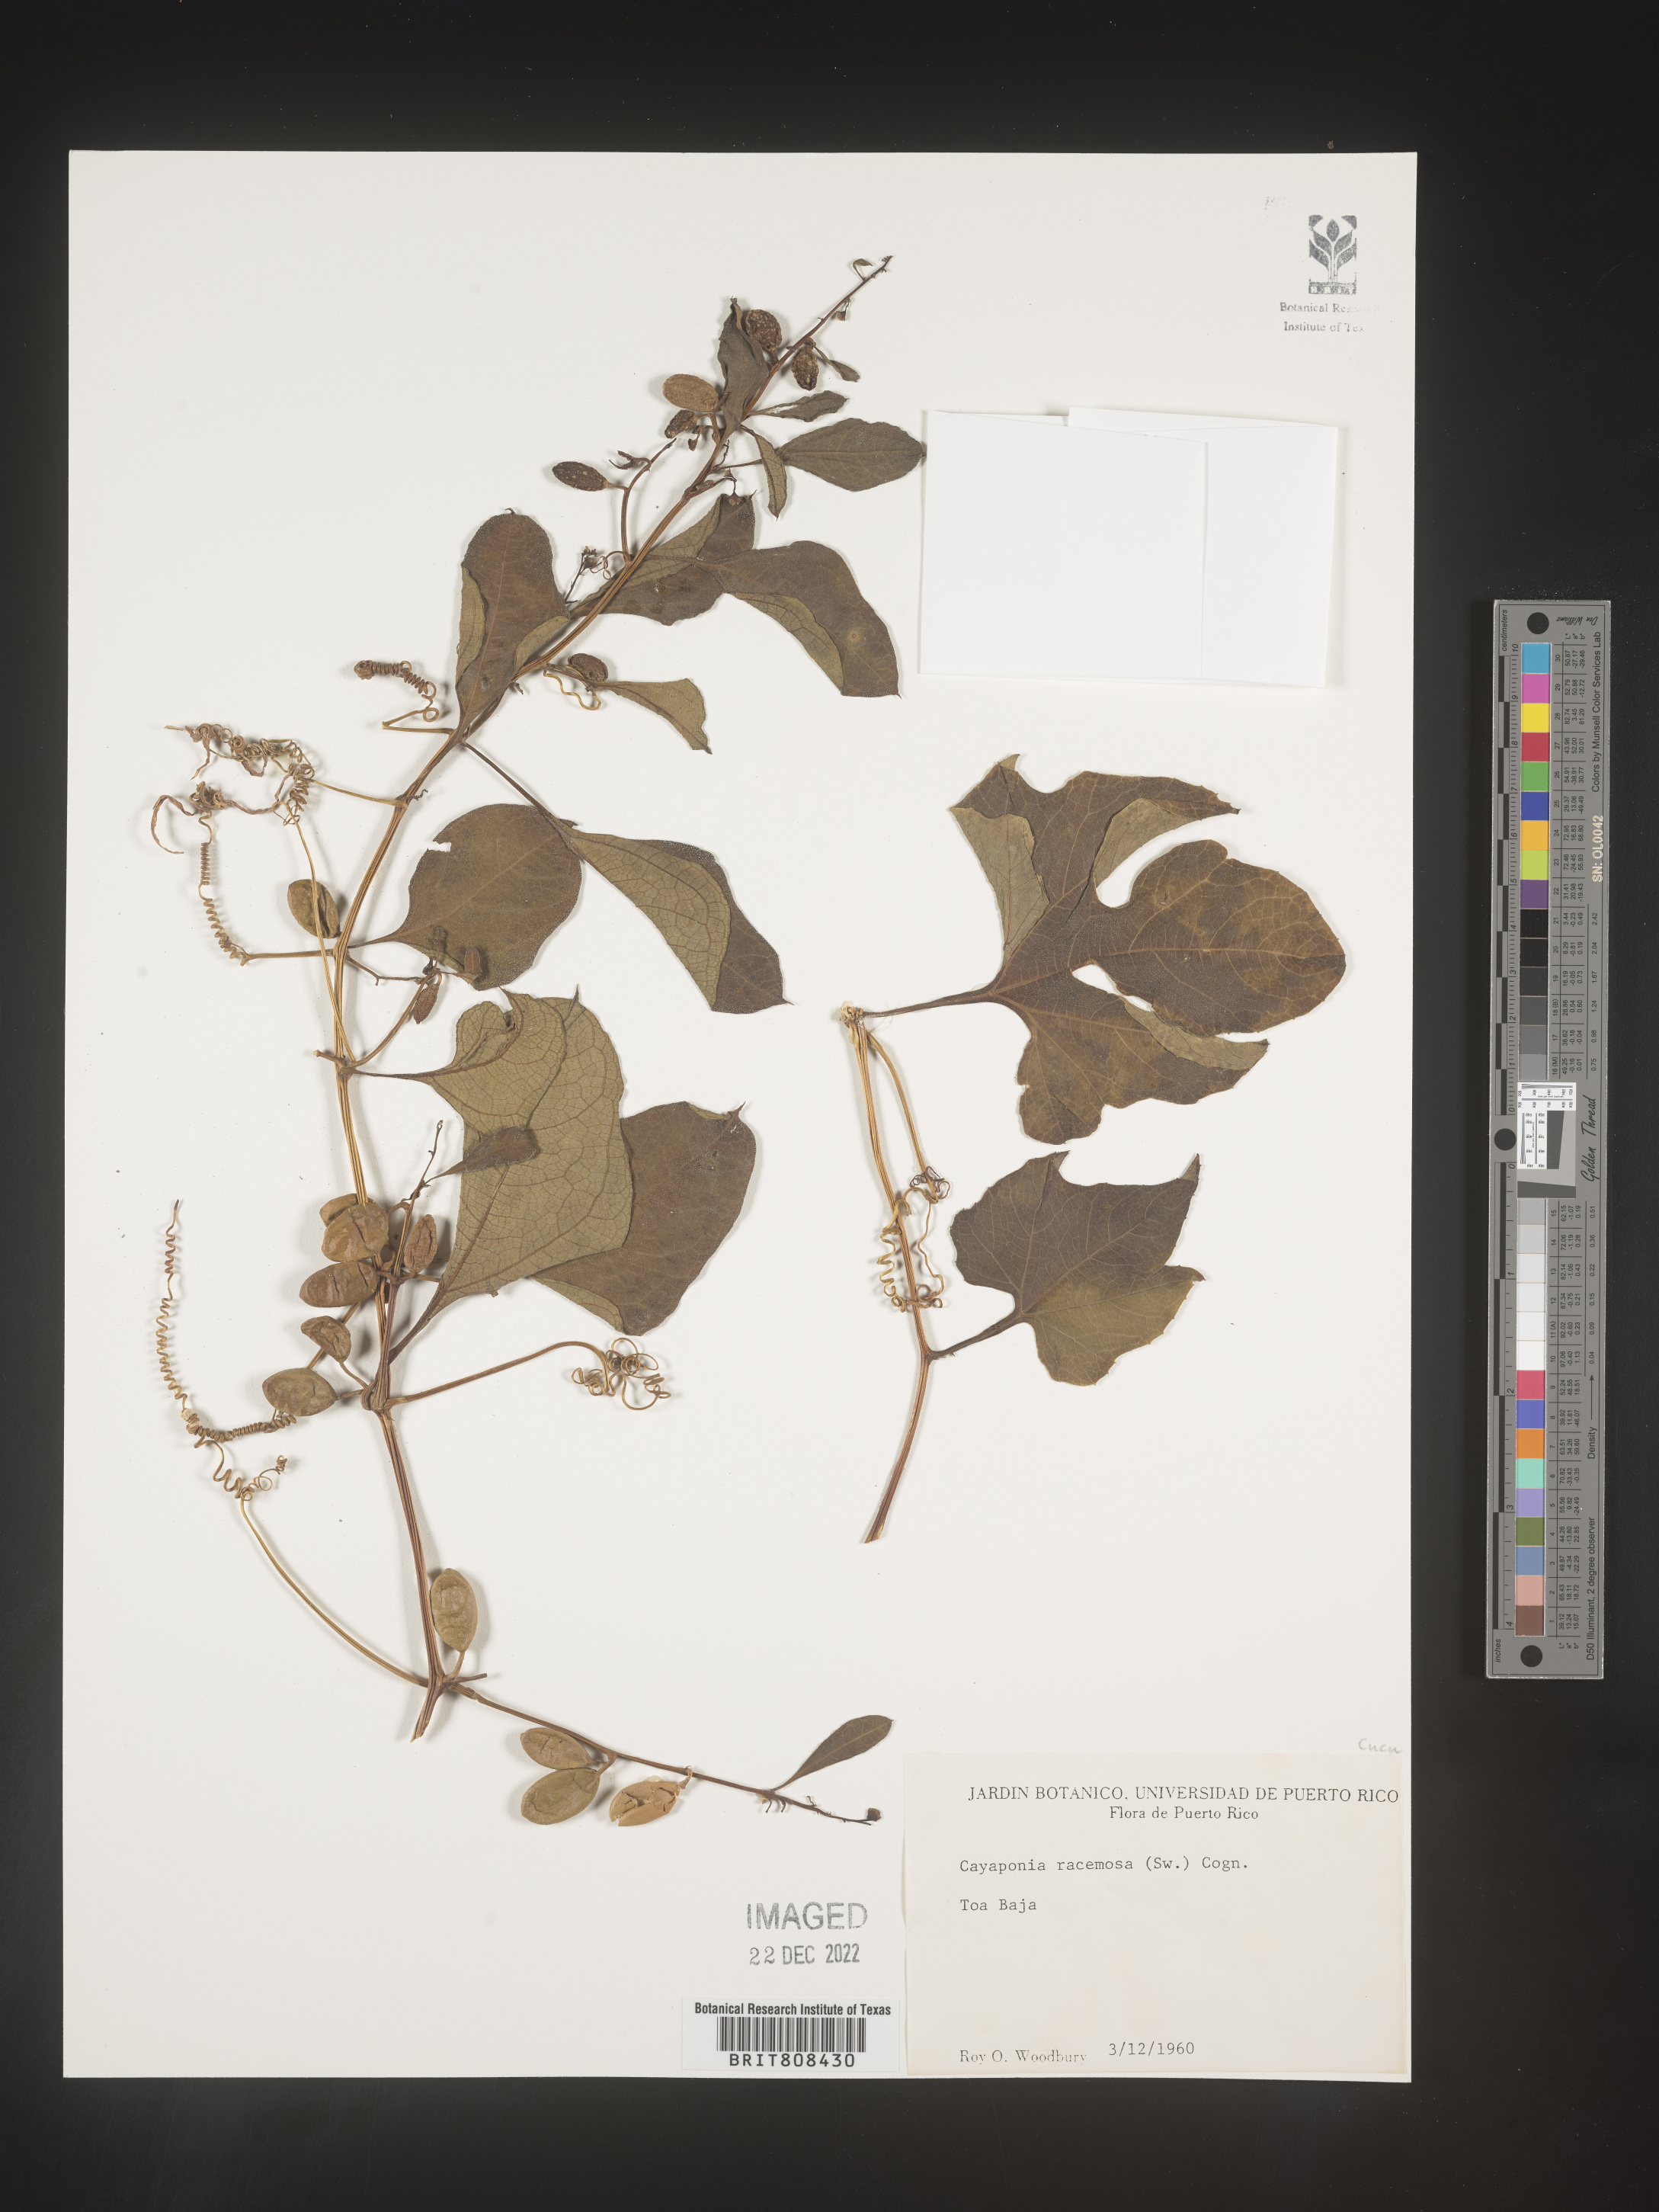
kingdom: Plantae
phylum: Tracheophyta
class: Magnoliopsida
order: Cucurbitales
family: Cucurbitaceae
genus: Cayaponia
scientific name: Cayaponia
